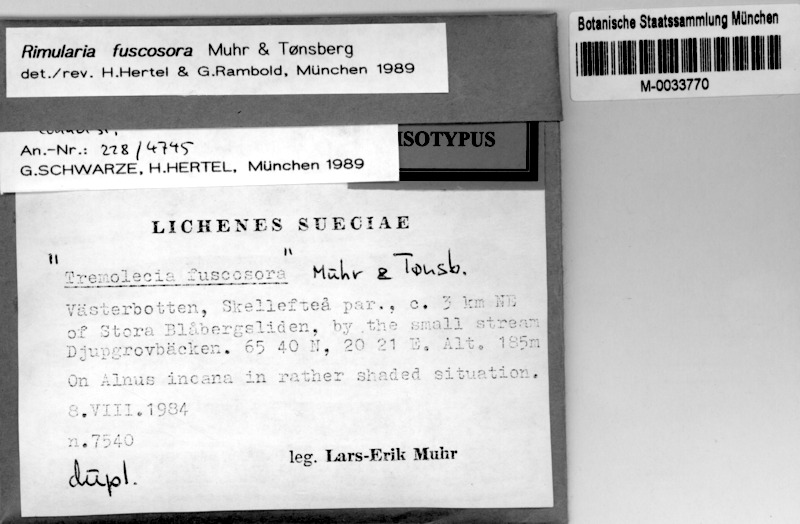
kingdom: Fungi
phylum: Ascomycota
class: Lecanoromycetes
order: Baeomycetales
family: Trapeliaceae
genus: Lambiella
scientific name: Lambiella fuscosora
